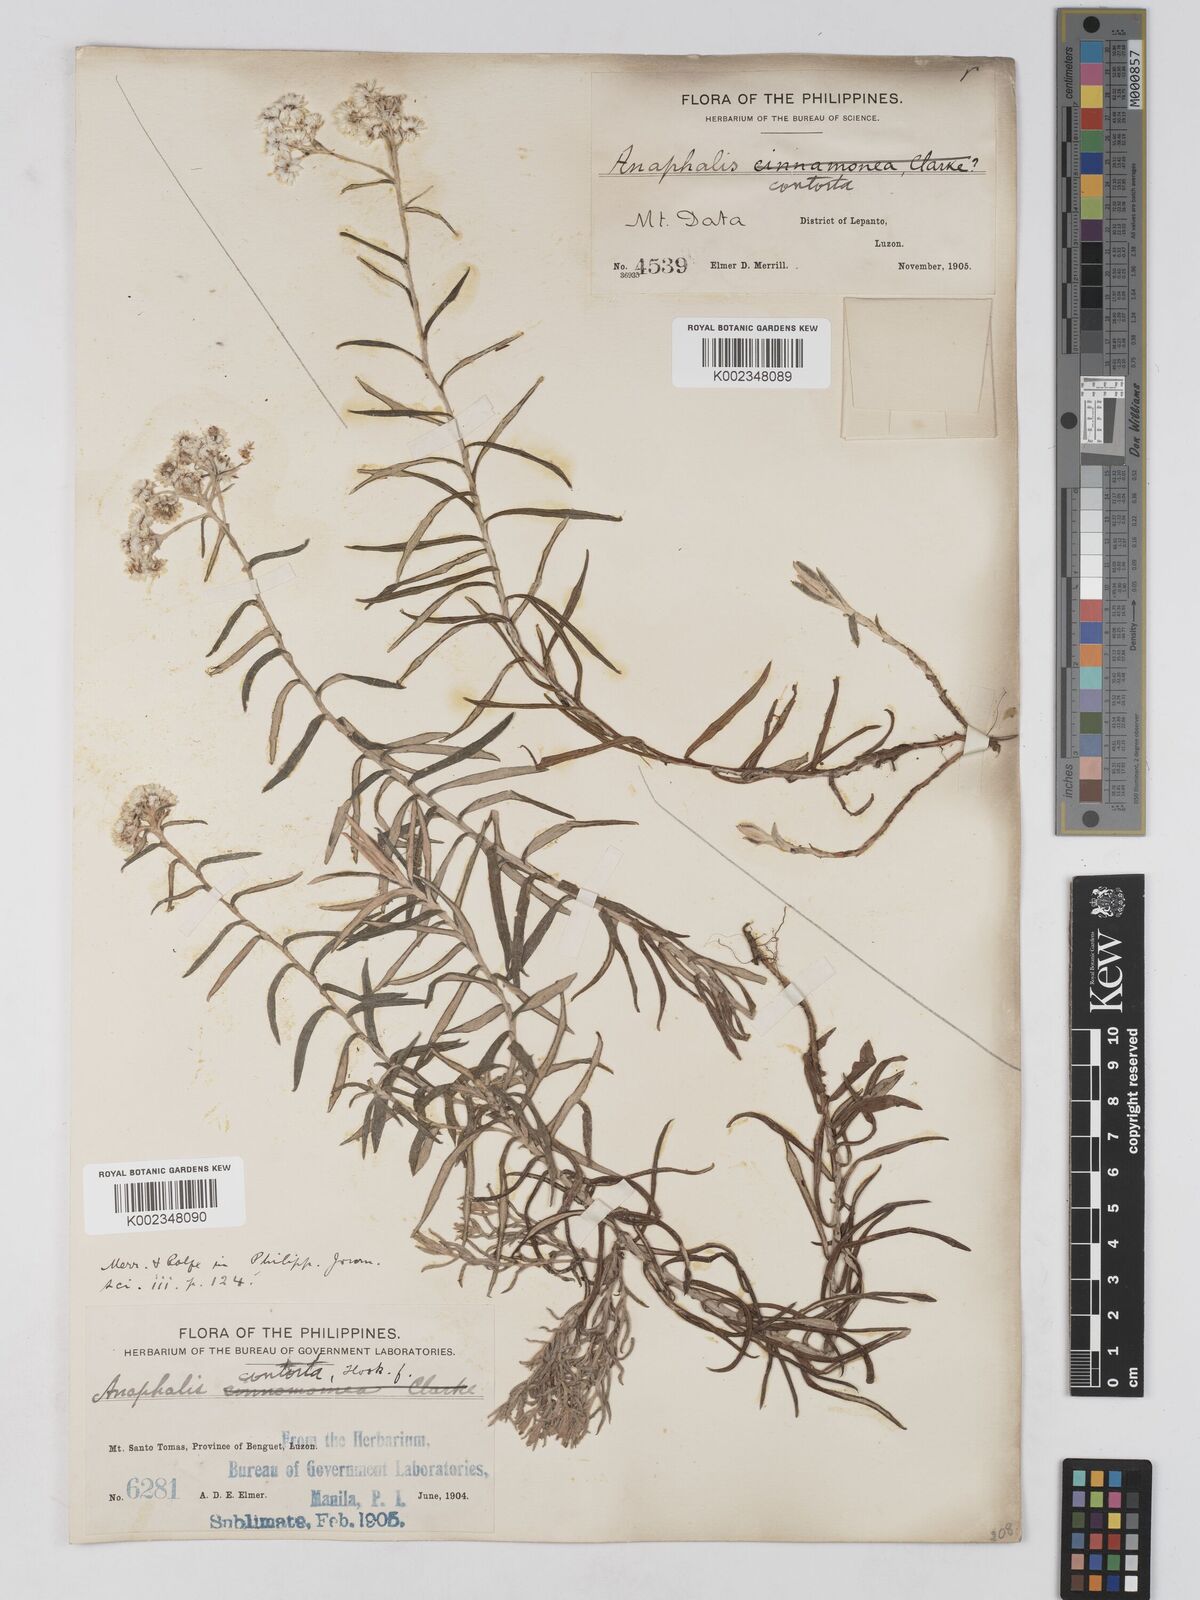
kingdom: Plantae
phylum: Tracheophyta
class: Magnoliopsida
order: Asterales
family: Asteraceae
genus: Anaphalis
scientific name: Anaphalis contorta
